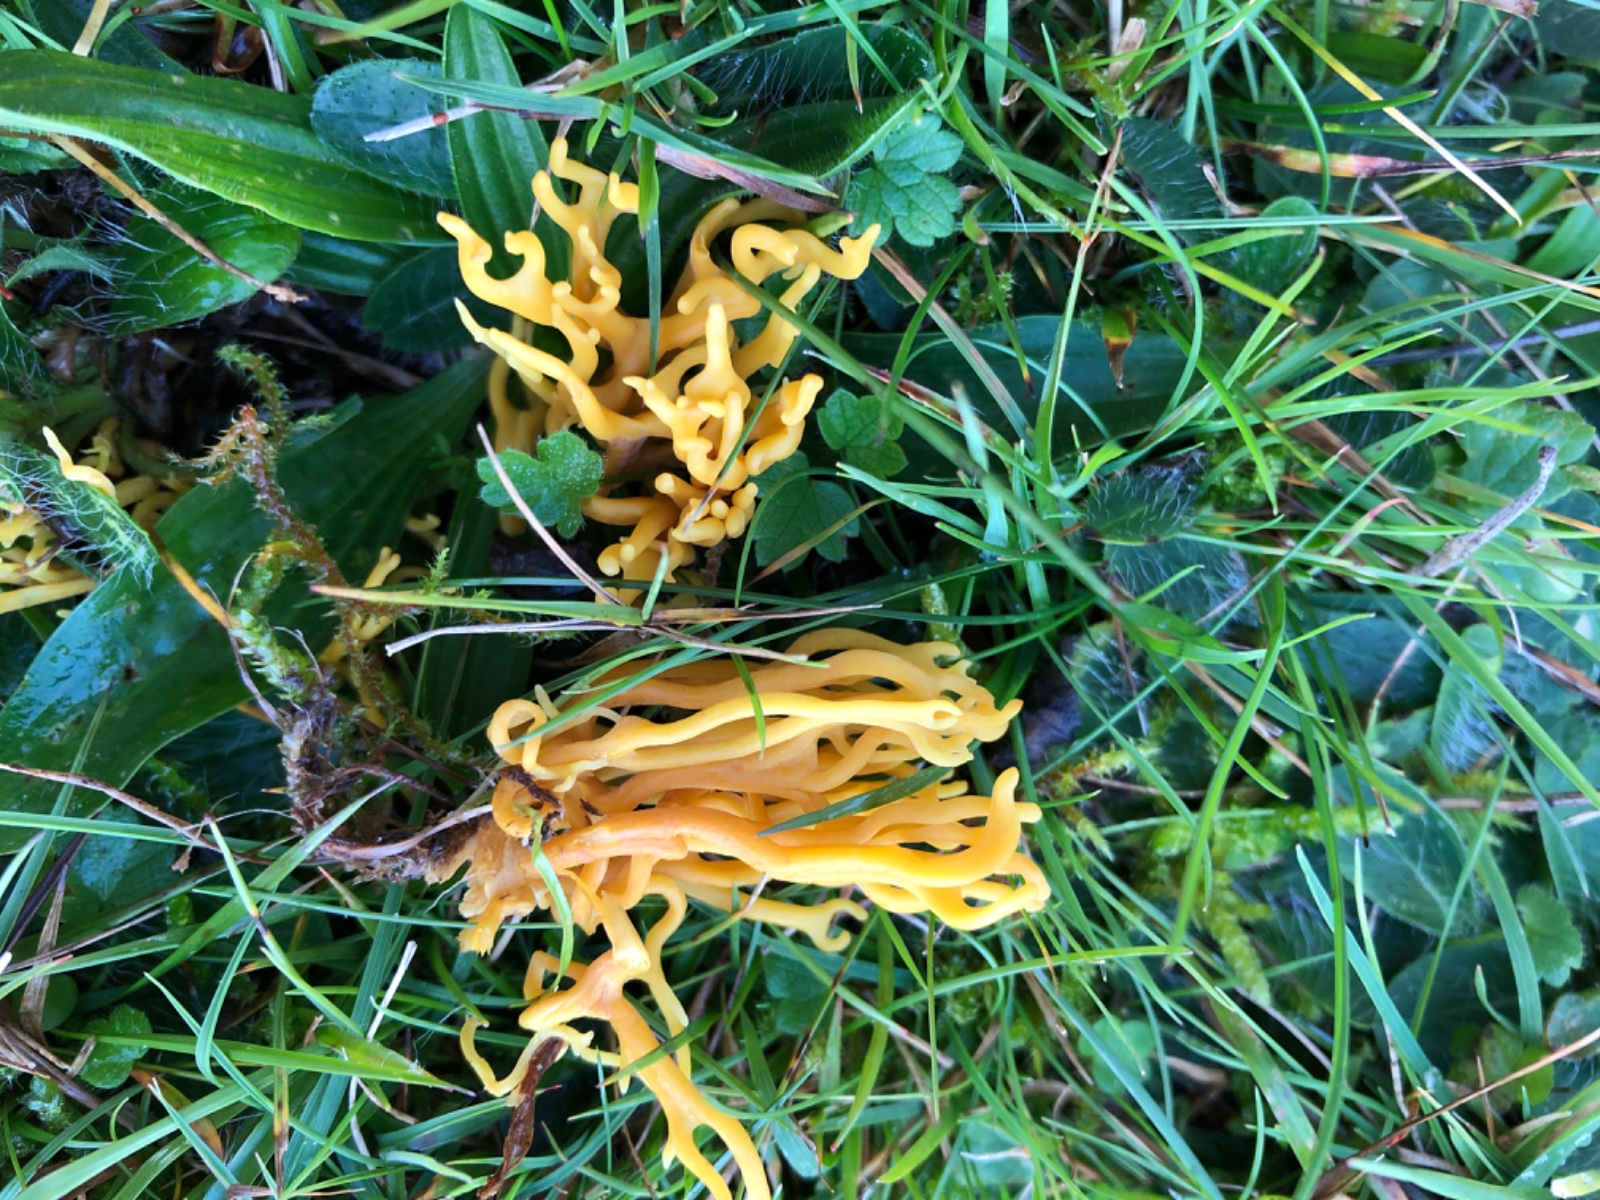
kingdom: Fungi
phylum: Basidiomycota
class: Agaricomycetes
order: Agaricales
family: Clavariaceae
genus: Clavulinopsis
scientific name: Clavulinopsis corniculata
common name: eng-køllesvamp
